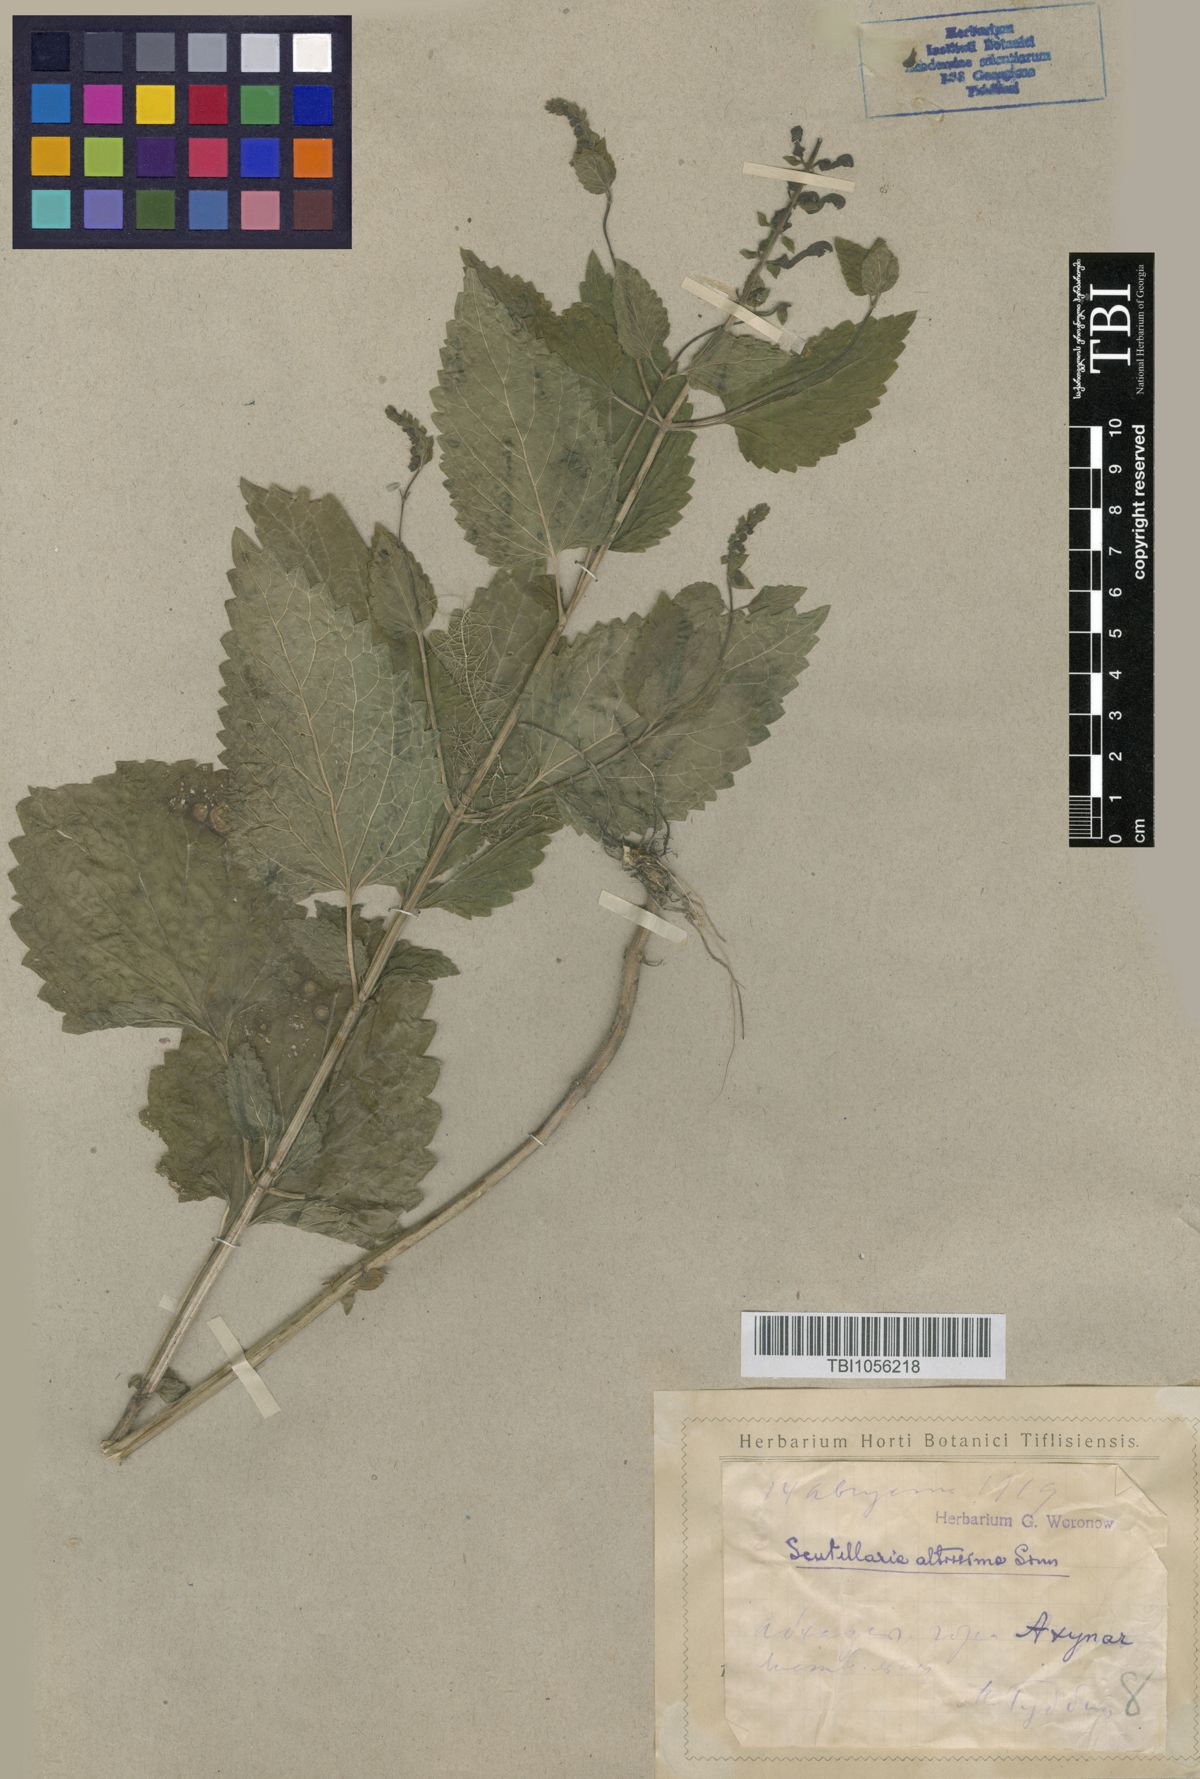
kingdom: Plantae
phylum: Tracheophyta
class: Magnoliopsida
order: Lamiales
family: Lamiaceae
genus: Scutellaria
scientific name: Scutellaria altissima
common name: Somerset skullcap
